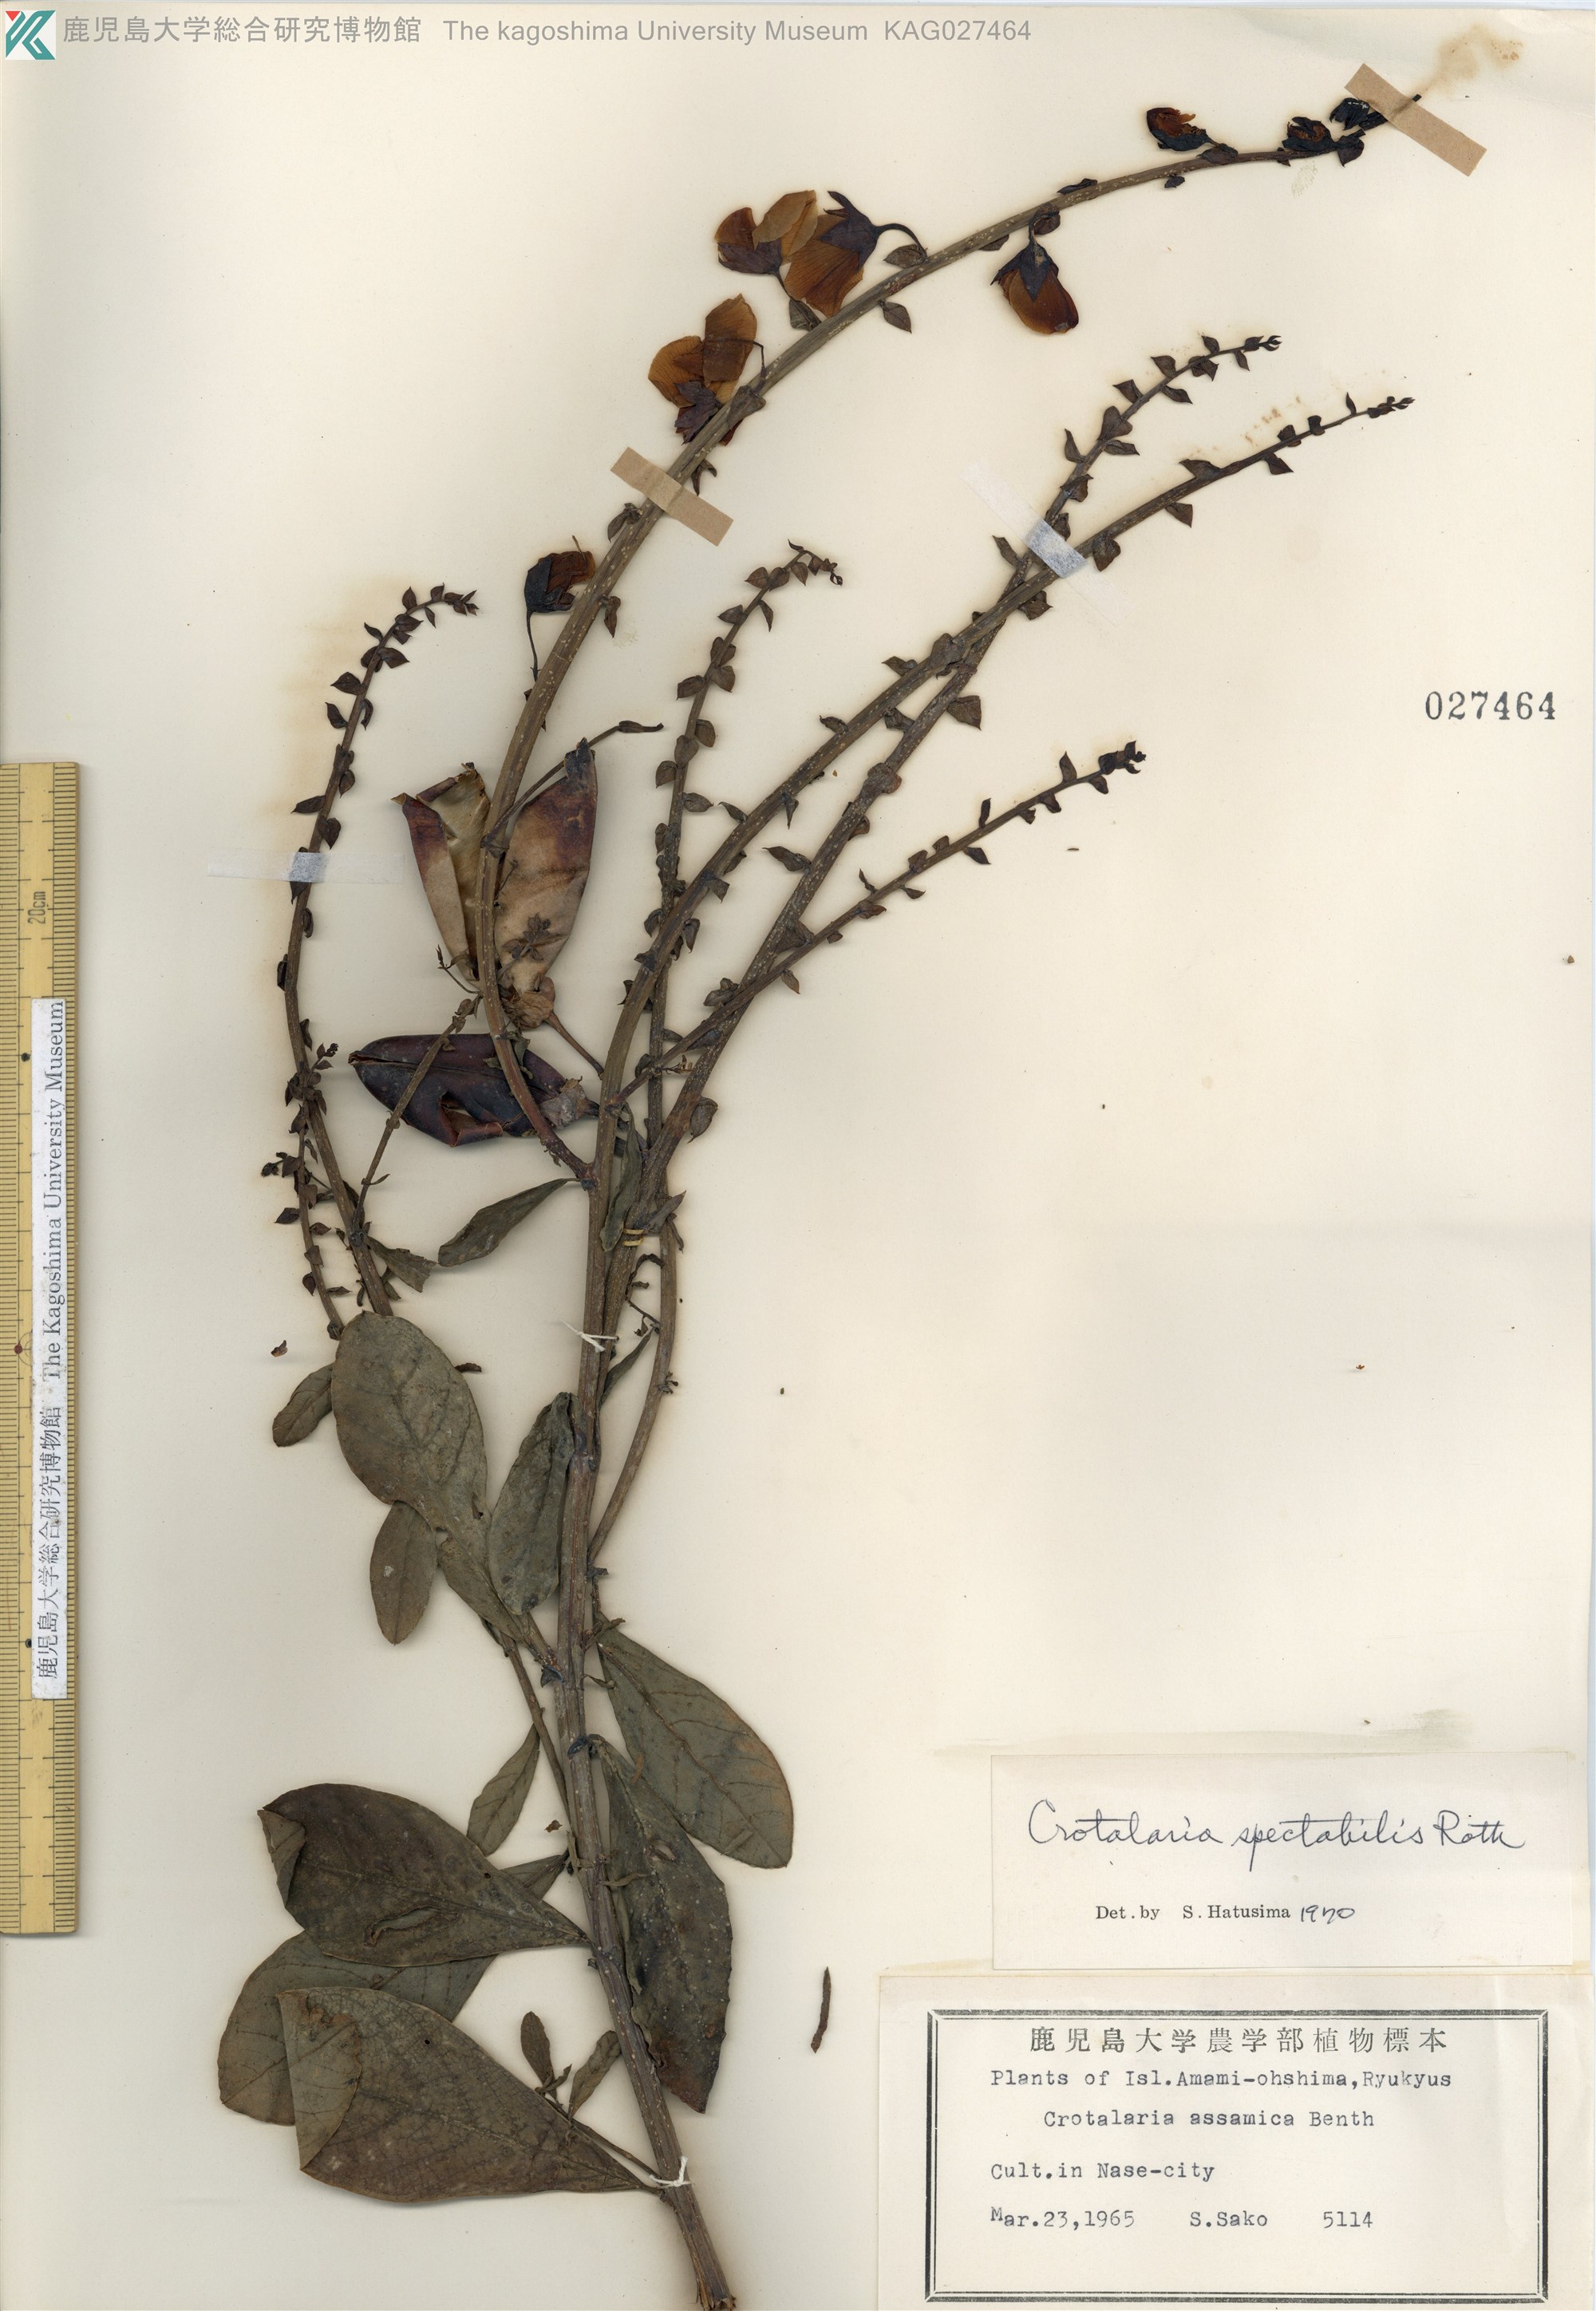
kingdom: Plantae
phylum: Tracheophyta
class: Magnoliopsida
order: Fabales
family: Fabaceae
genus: Crotalaria
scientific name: Crotalaria spectabilis
